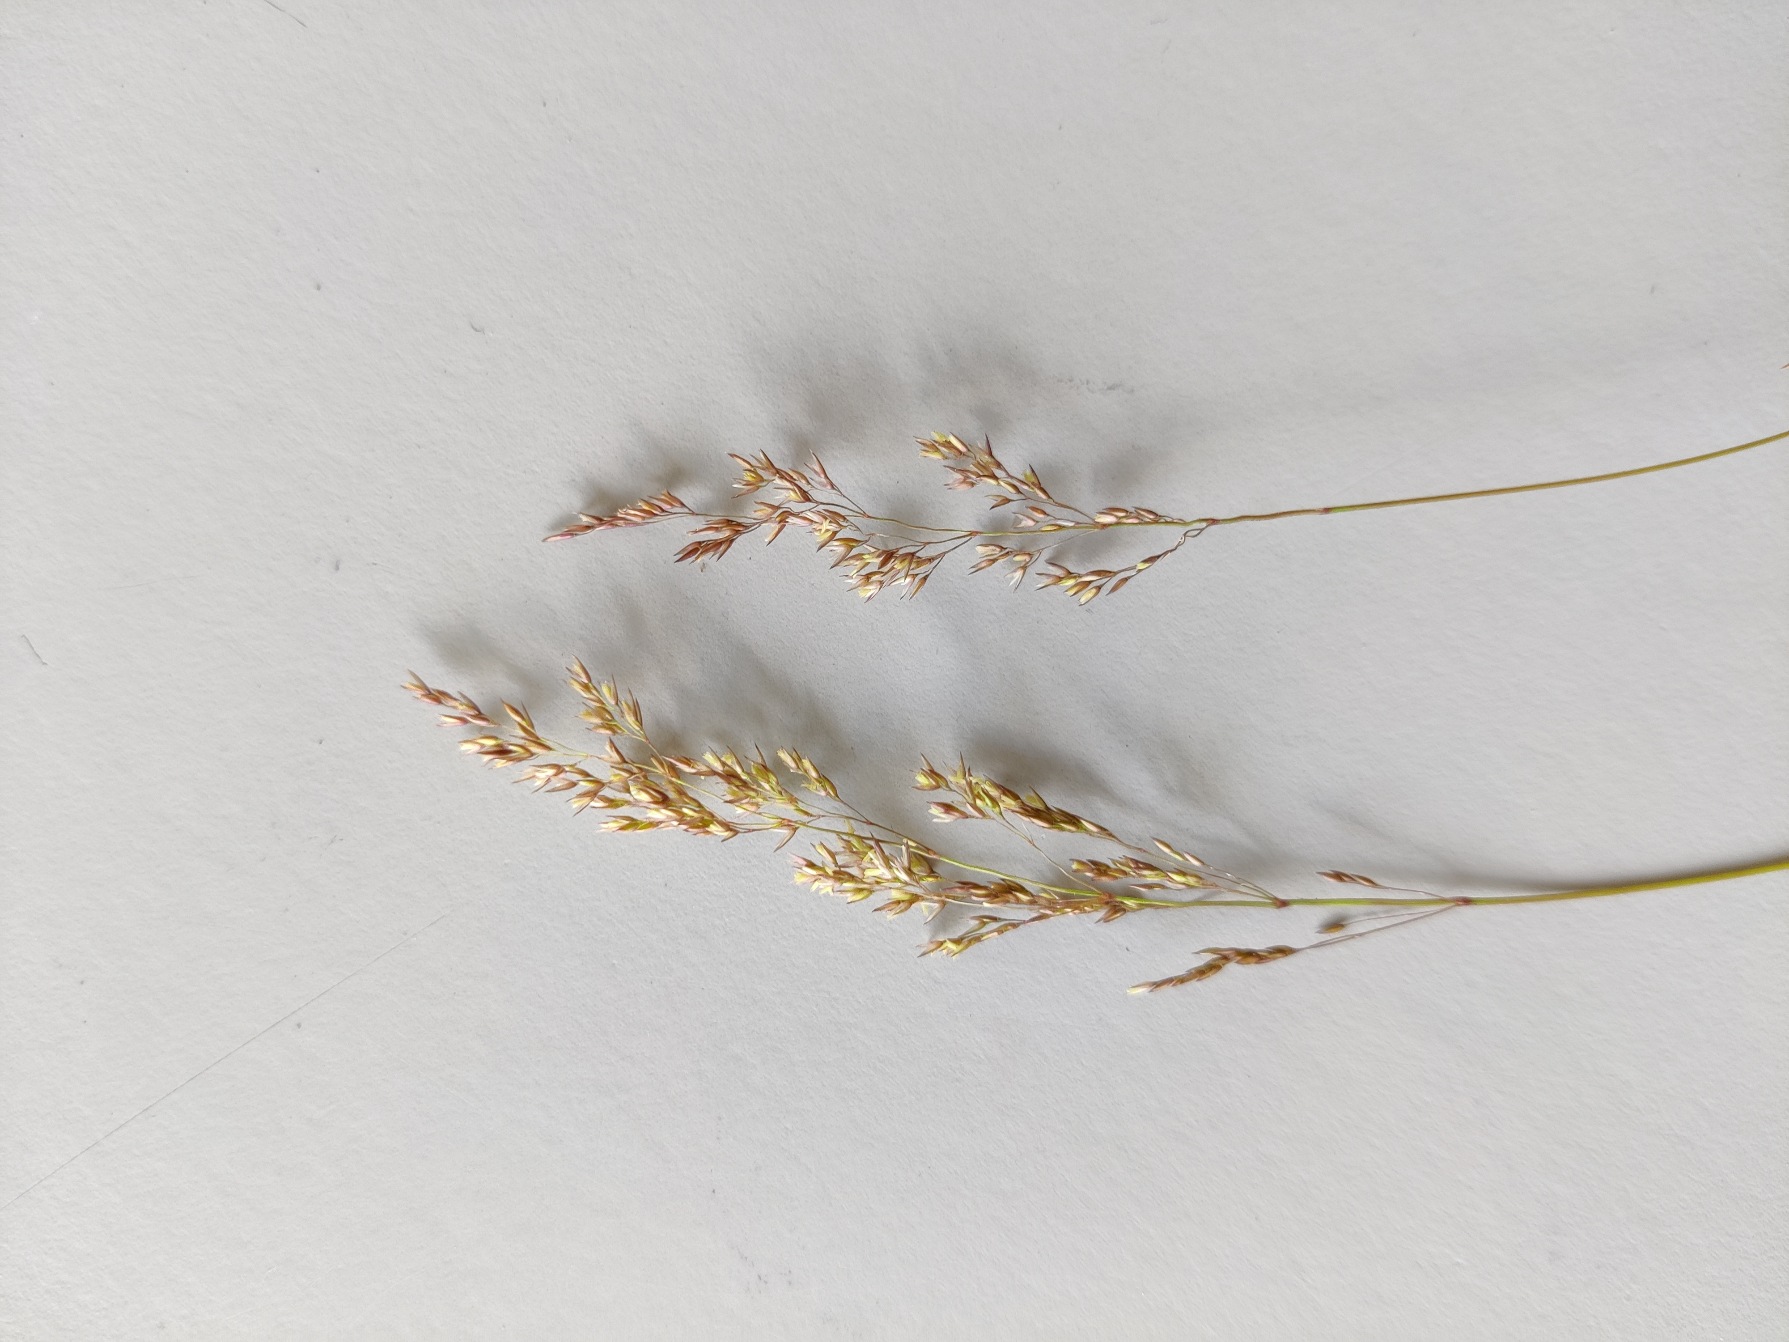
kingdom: Plantae
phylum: Tracheophyta
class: Liliopsida
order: Poales
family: Poaceae
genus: Agrostis
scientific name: Agrostis stolonifera
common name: Kryb-hvene
